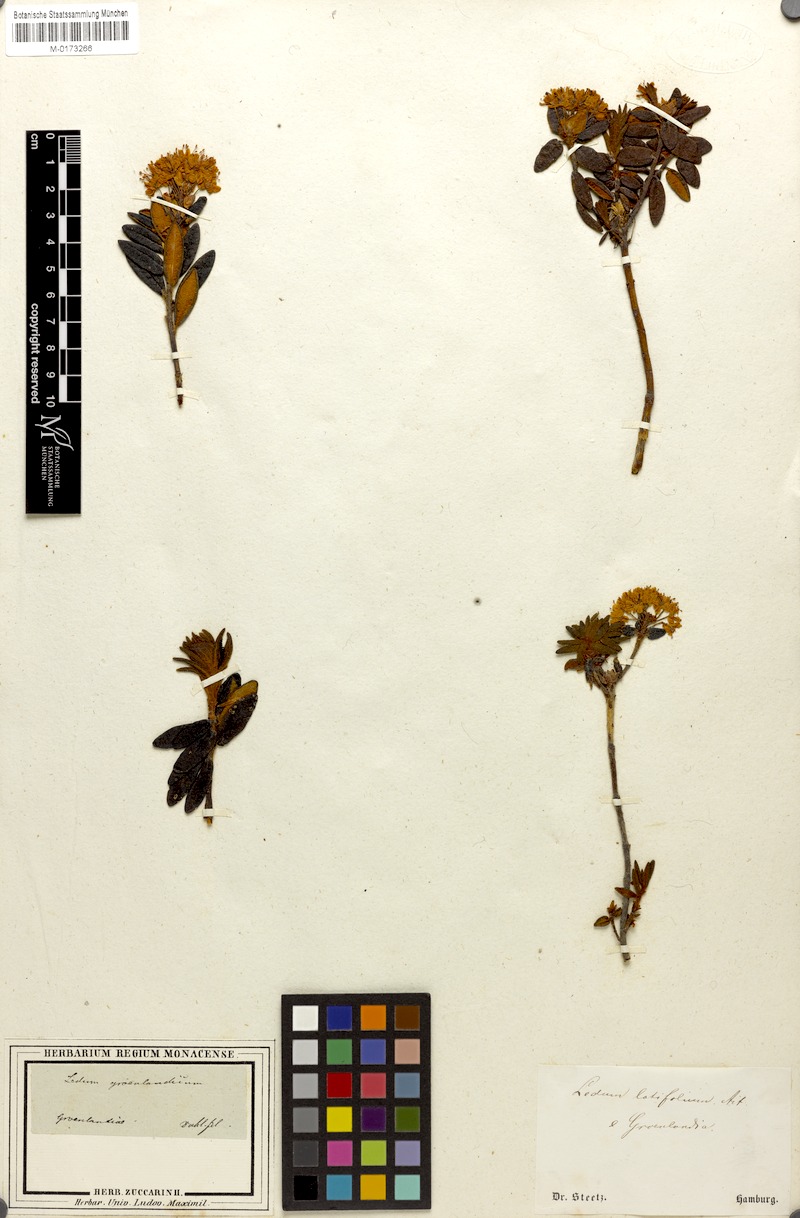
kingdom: Plantae
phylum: Tracheophyta
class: Magnoliopsida
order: Ericales
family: Ericaceae
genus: Rhododendron
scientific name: Rhododendron groenlandicum
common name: Bog labrador tea
